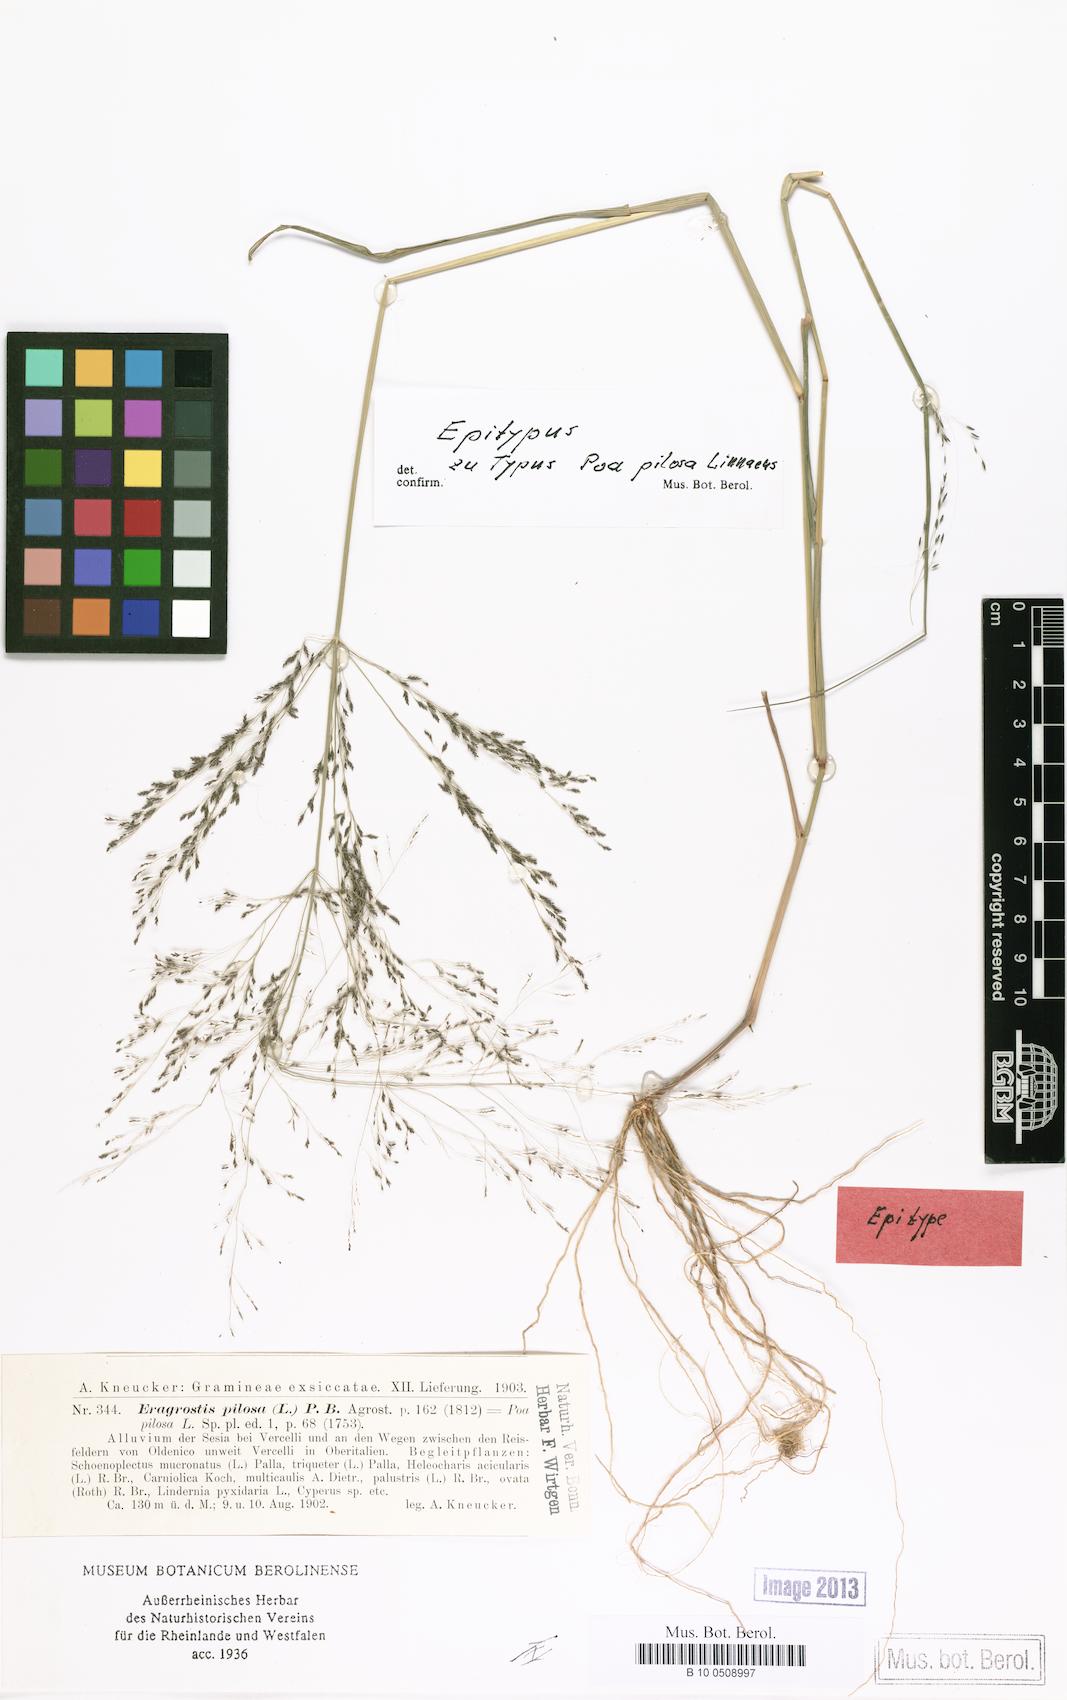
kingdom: Plantae
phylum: Tracheophyta
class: Liliopsida
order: Poales
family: Poaceae
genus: Eragrostis
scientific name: Eragrostis pilosa
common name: Indian lovegrass
